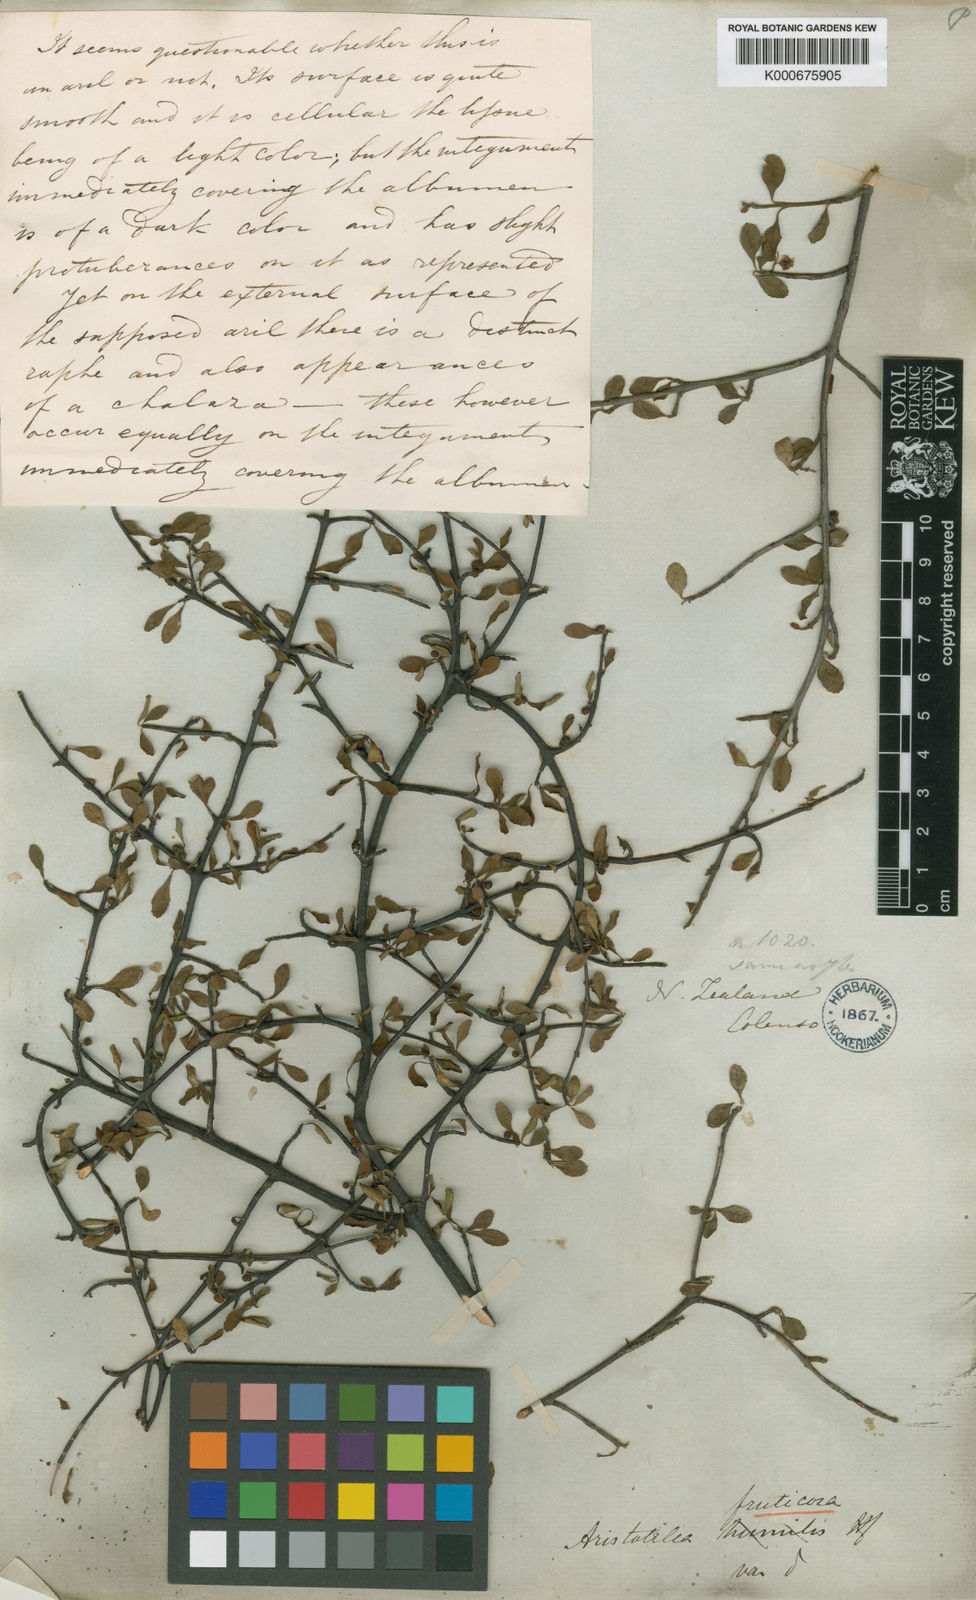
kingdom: Plantae
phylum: Tracheophyta
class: Magnoliopsida
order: Oxalidales
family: Elaeocarpaceae
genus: Aristotelia
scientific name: Aristotelia fruticosa
